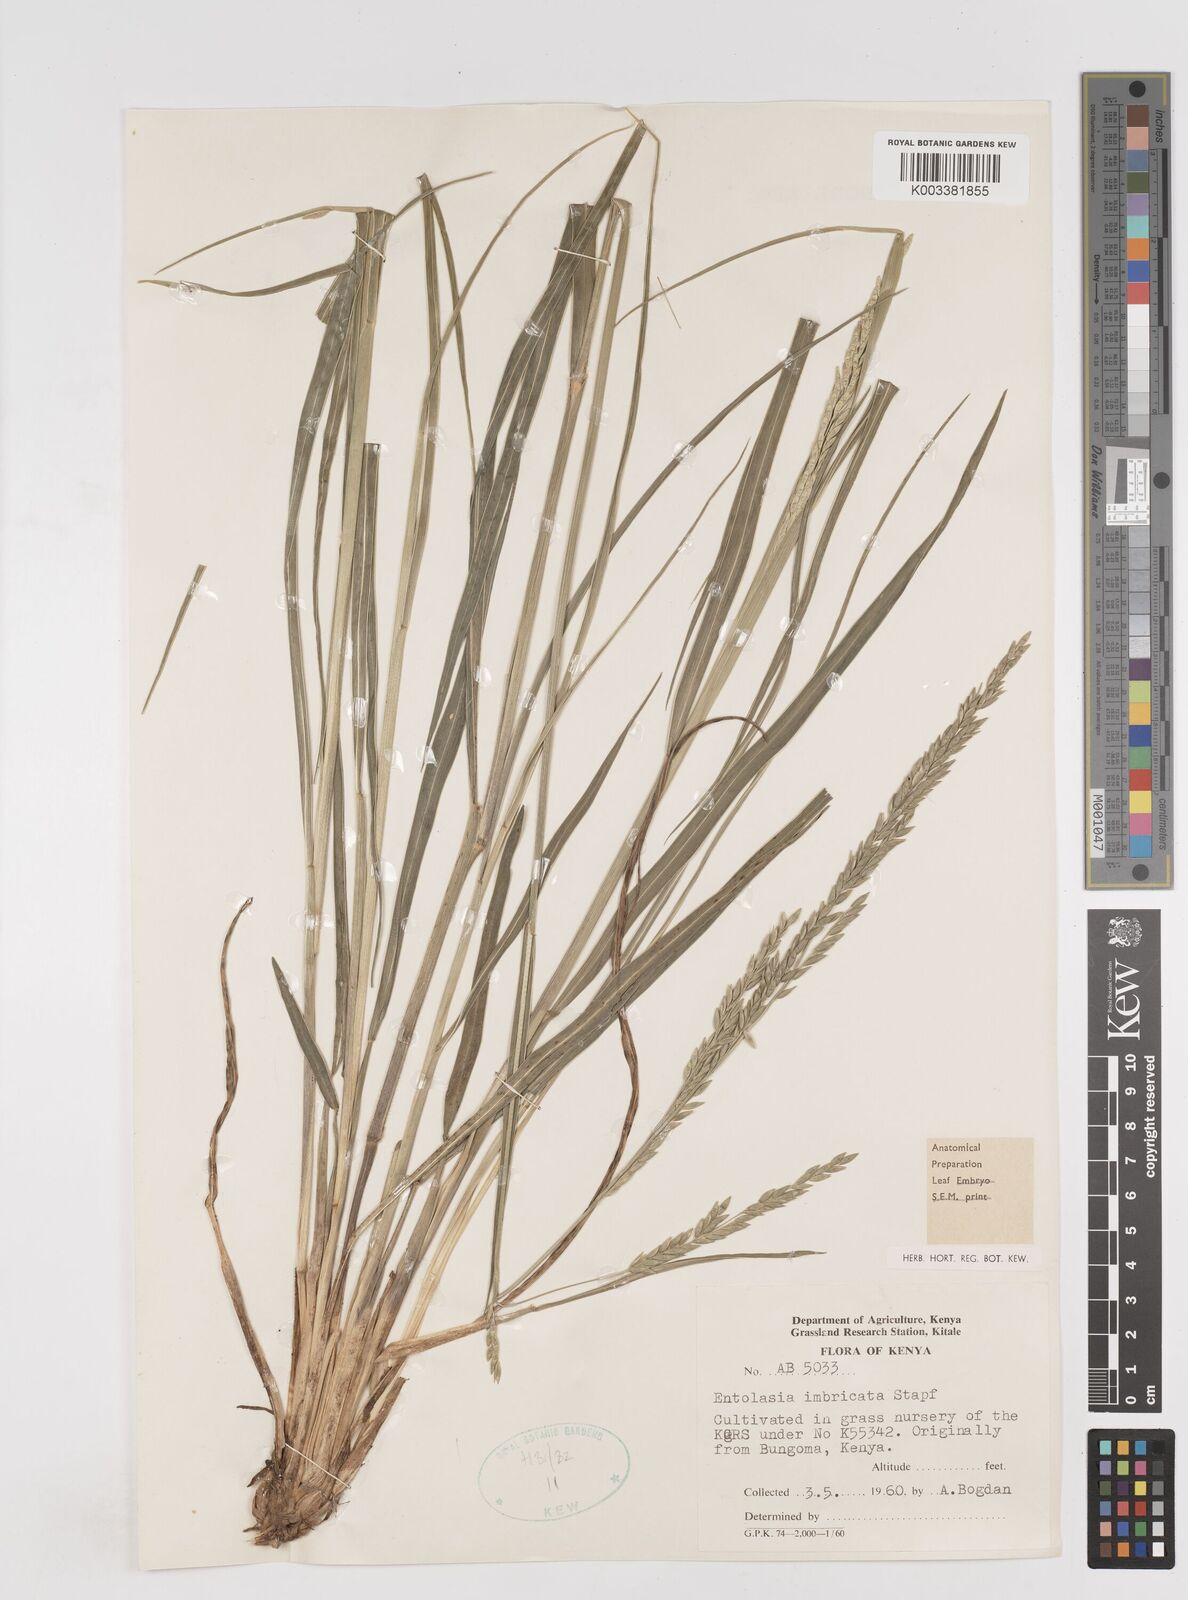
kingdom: Plantae
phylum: Tracheophyta
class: Liliopsida
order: Poales
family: Poaceae
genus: Entolasia
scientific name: Entolasia imbricata
